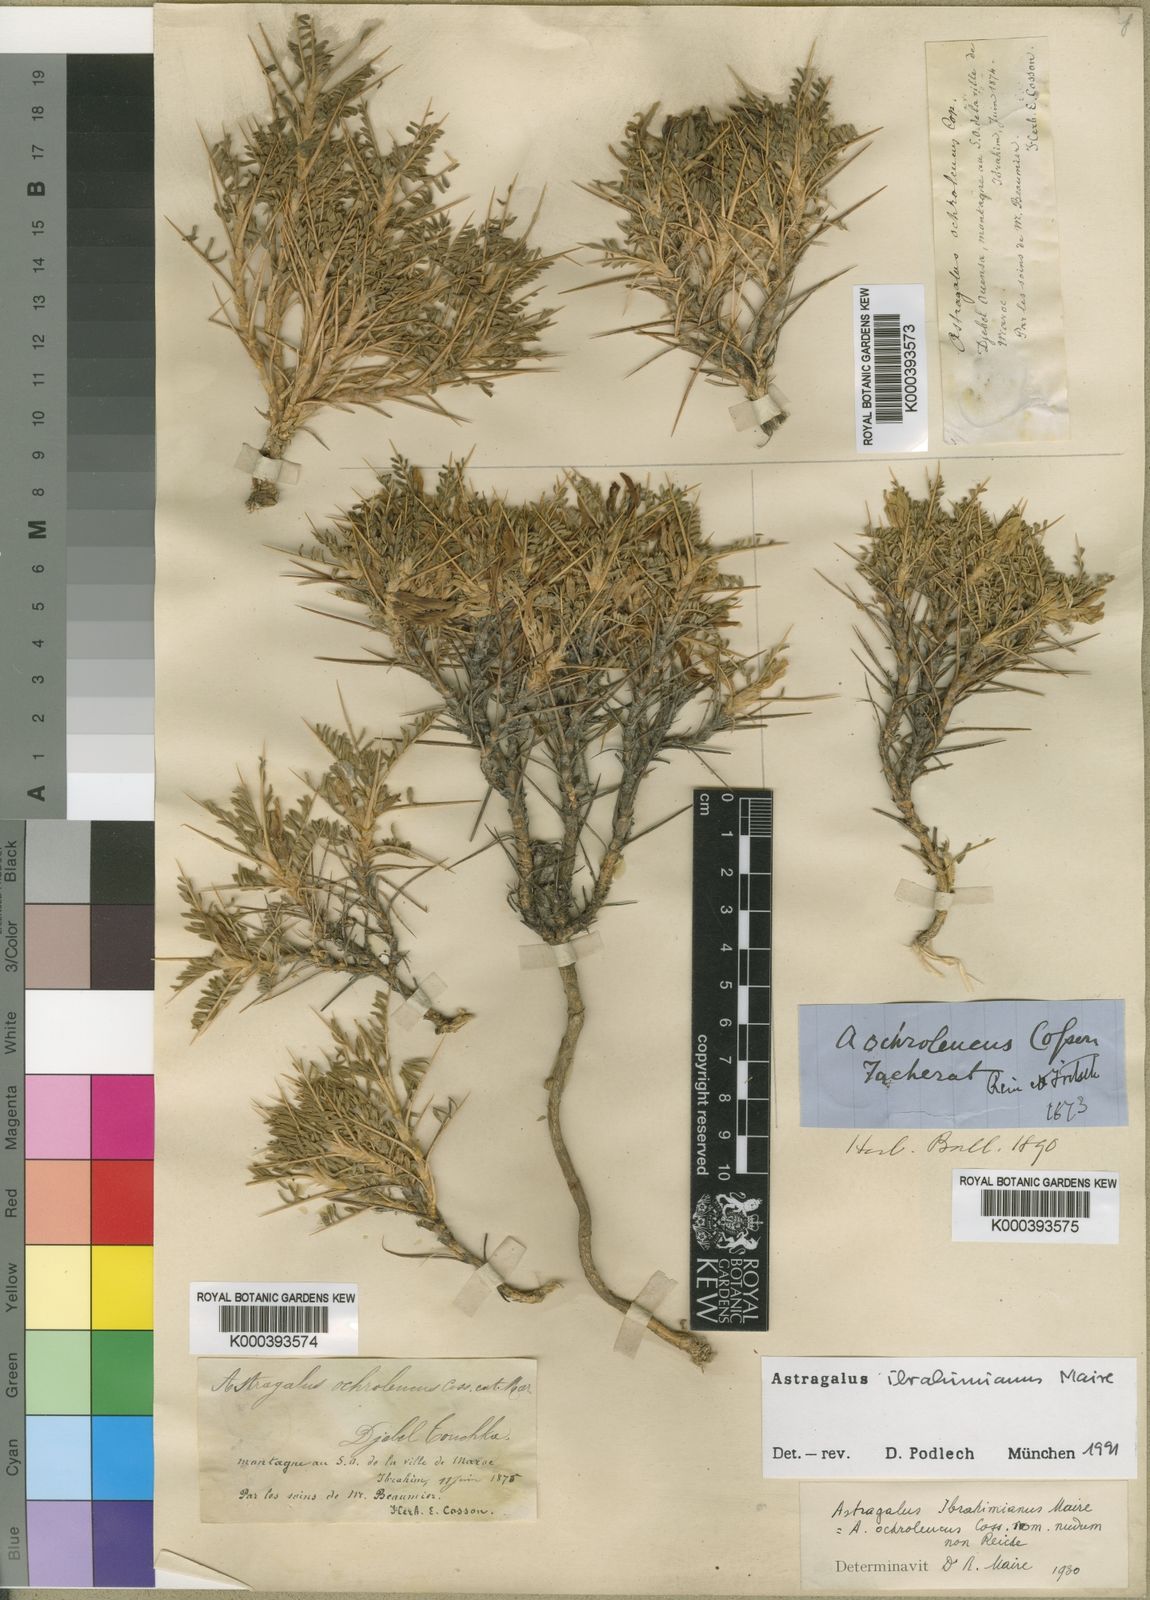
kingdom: Plantae
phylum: Tracheophyta
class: Magnoliopsida
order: Fabales
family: Fabaceae
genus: Astragalus
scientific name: Astragalus ibrahimianus
